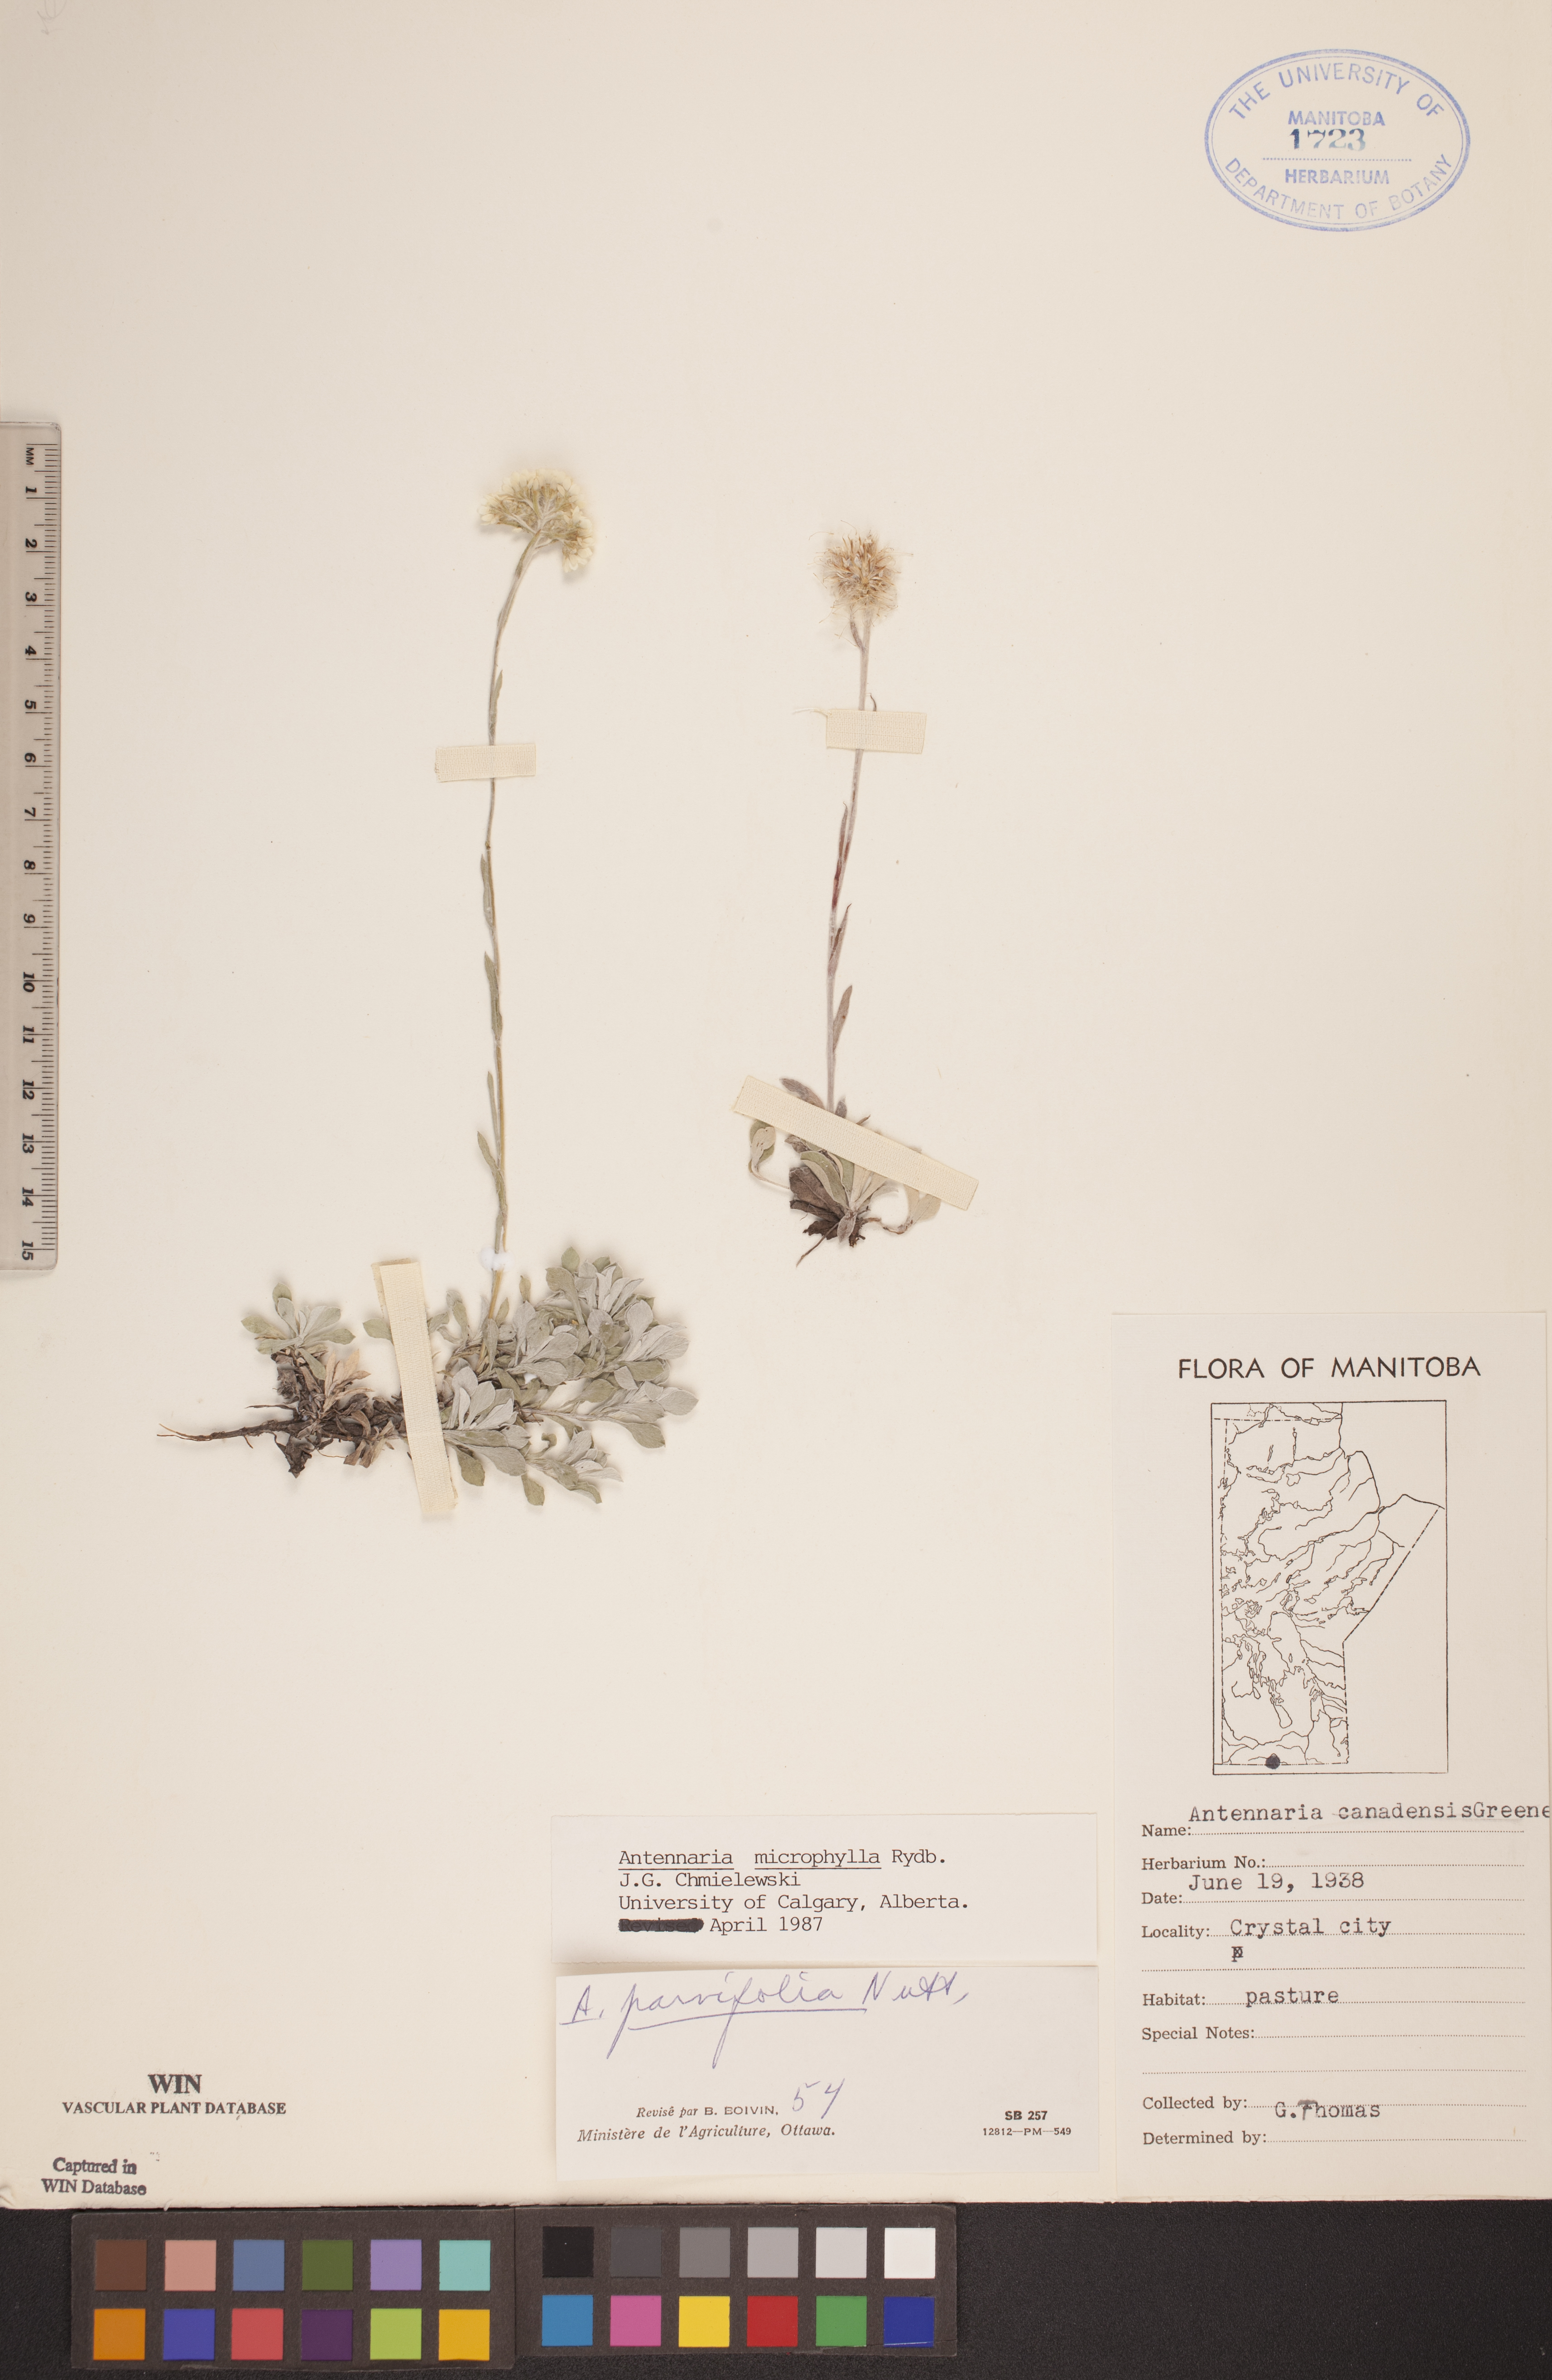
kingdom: Plantae
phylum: Tracheophyta
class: Magnoliopsida
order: Asterales
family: Asteraceae
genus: Antennaria
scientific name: Antennaria microphylla
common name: Littleleaf pussytoes
